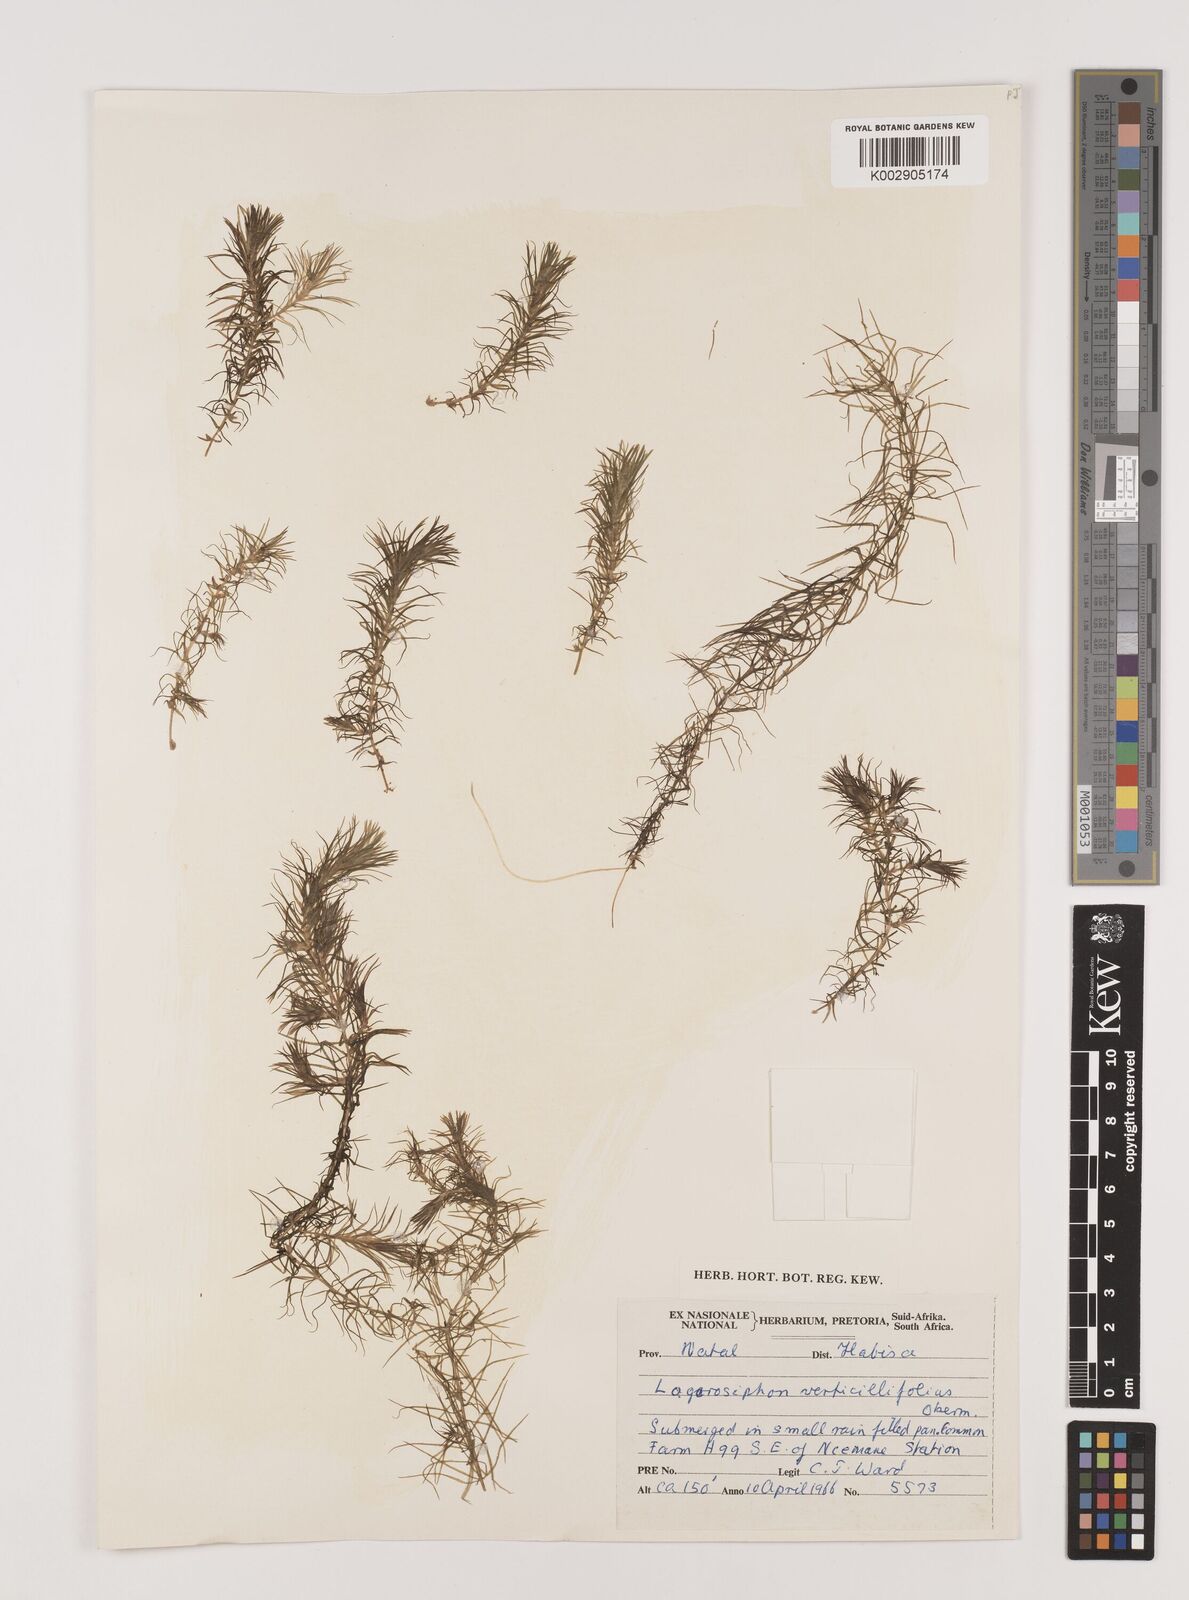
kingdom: Plantae
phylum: Tracheophyta
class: Liliopsida
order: Alismatales
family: Hydrocharitaceae
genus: Lagarosiphon
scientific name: Lagarosiphon verticillifolius
